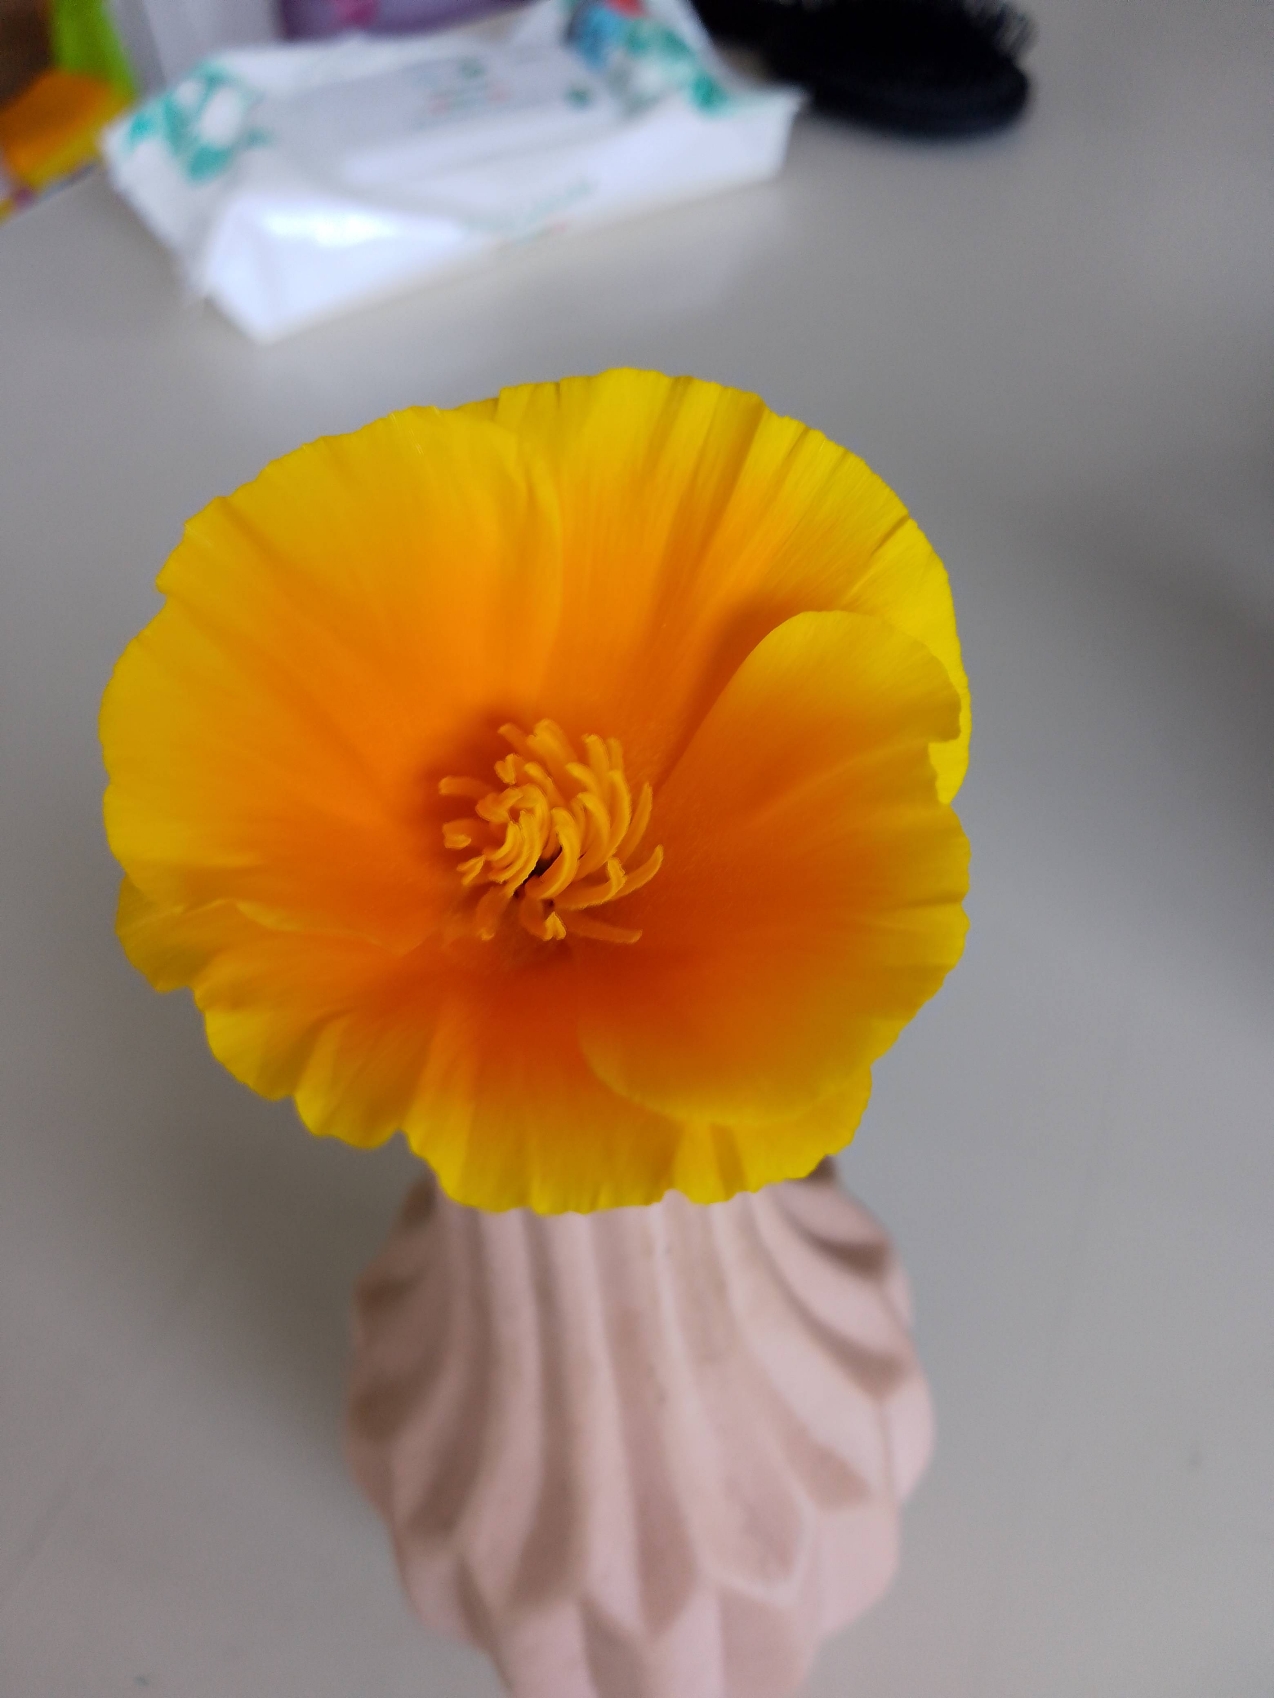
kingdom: Plantae
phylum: Tracheophyta
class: Magnoliopsida
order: Ranunculales
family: Papaveraceae
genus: Eschscholzia
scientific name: Eschscholzia californica
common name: Guldvalmue
